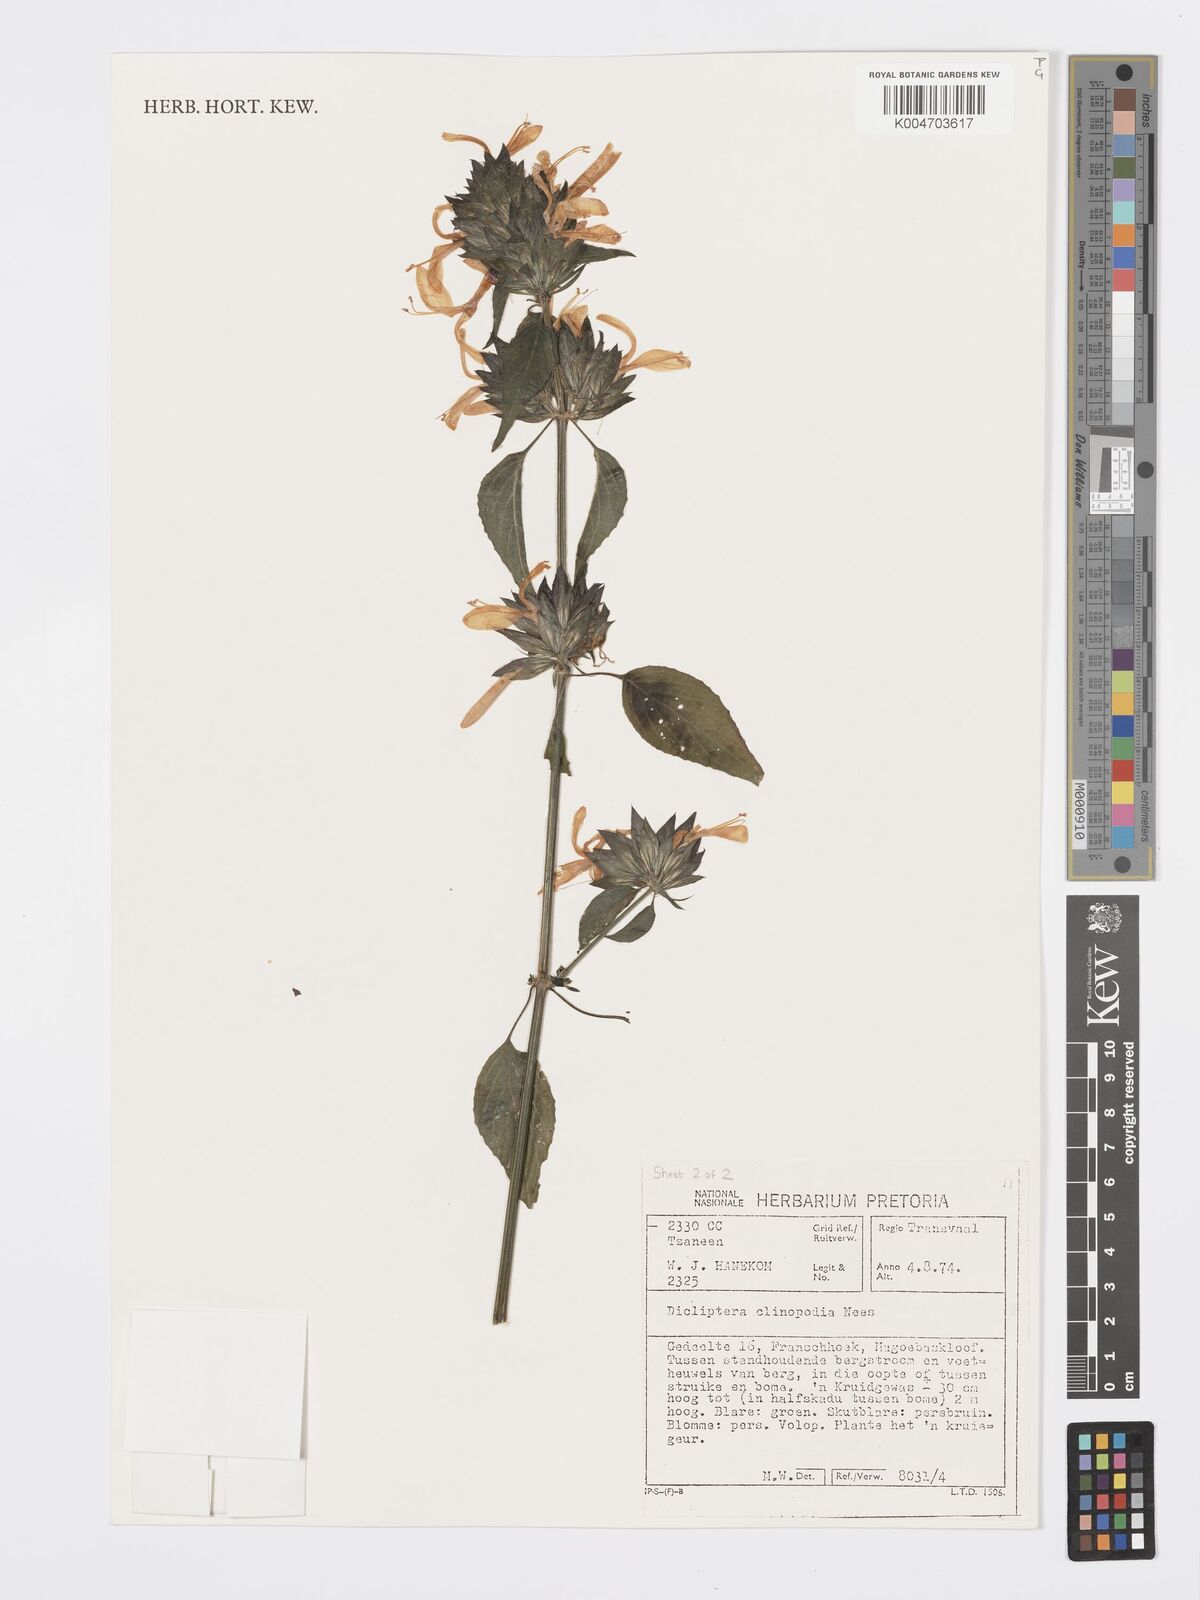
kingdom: Plantae
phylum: Tracheophyta
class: Magnoliopsida
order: Lamiales
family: Acanthaceae
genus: Dicliptera
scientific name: Dicliptera clinopodia
